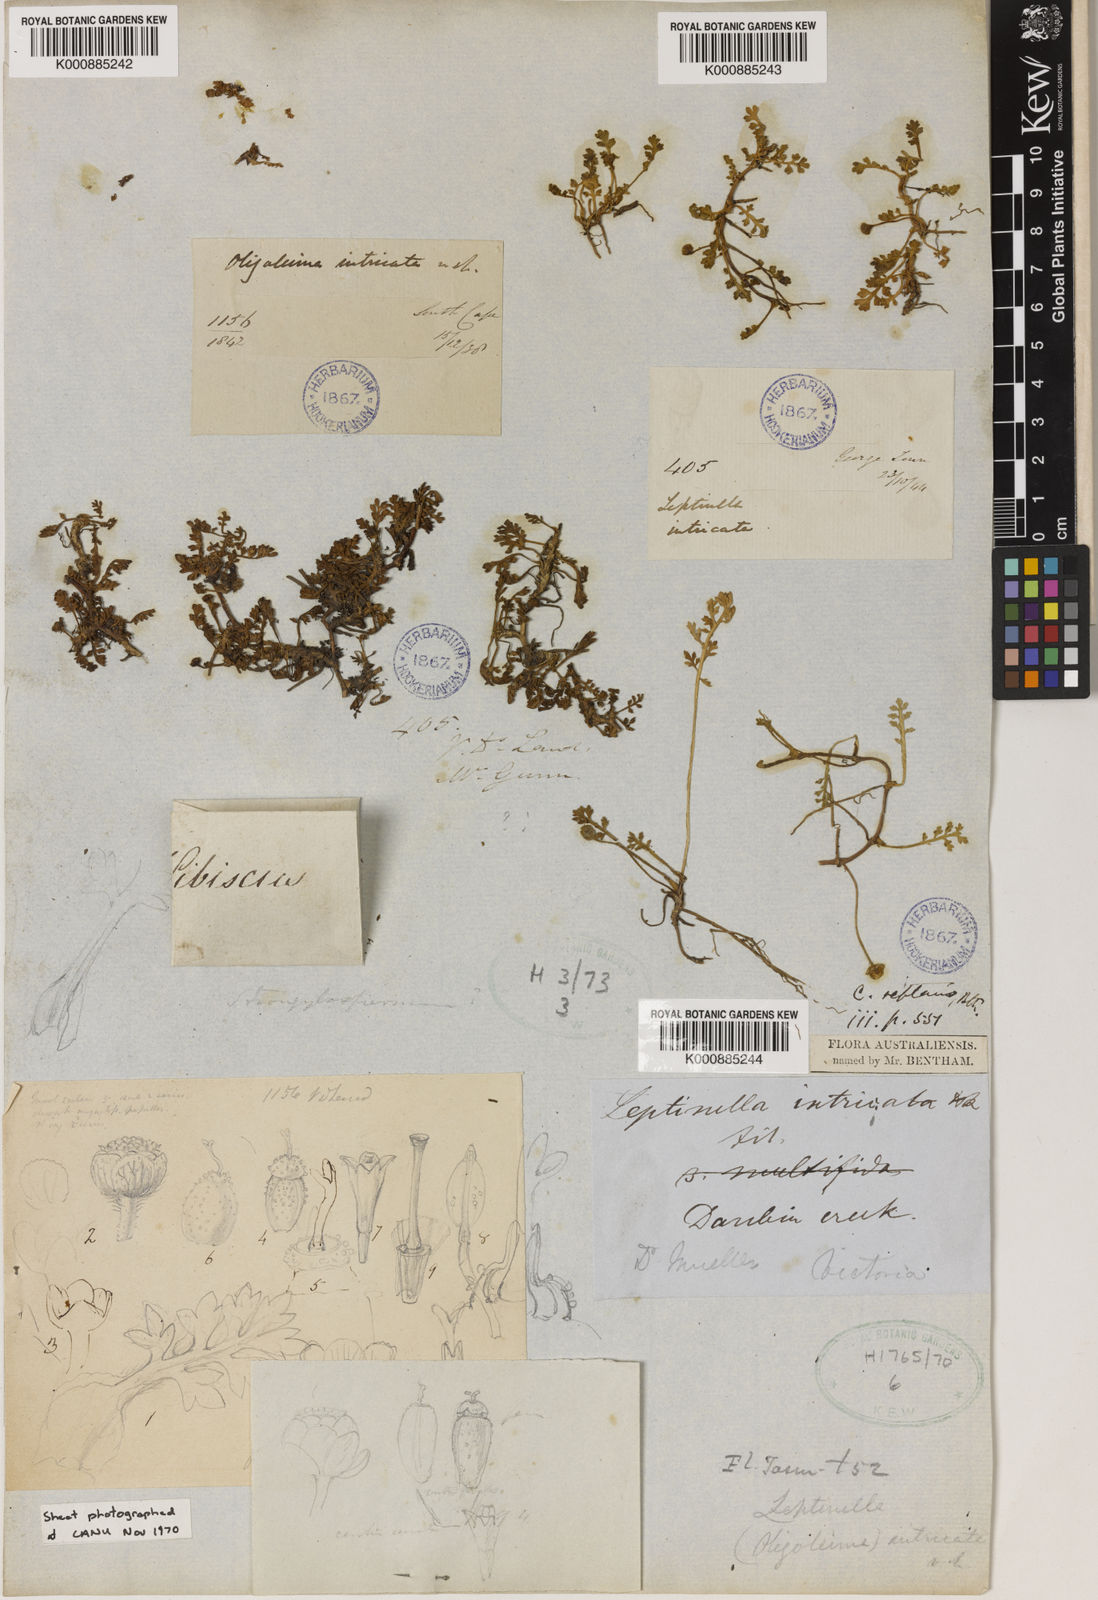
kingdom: Plantae
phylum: Tracheophyta
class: Magnoliopsida
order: Asterales
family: Asteraceae
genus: Leptinella
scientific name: Leptinella reptans
